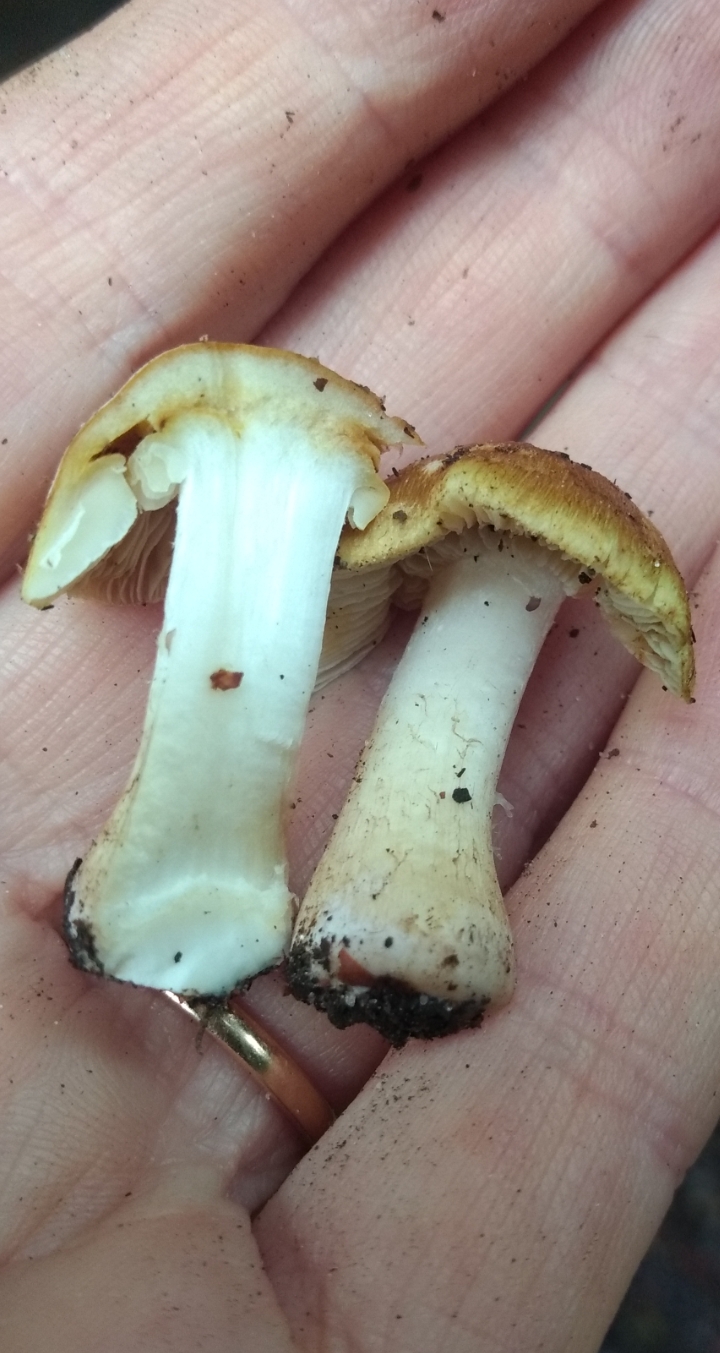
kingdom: Fungi
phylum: Basidiomycota
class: Agaricomycetes
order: Agaricales
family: Inocybaceae
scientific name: Inocybaceae
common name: trævlhatfamilien
